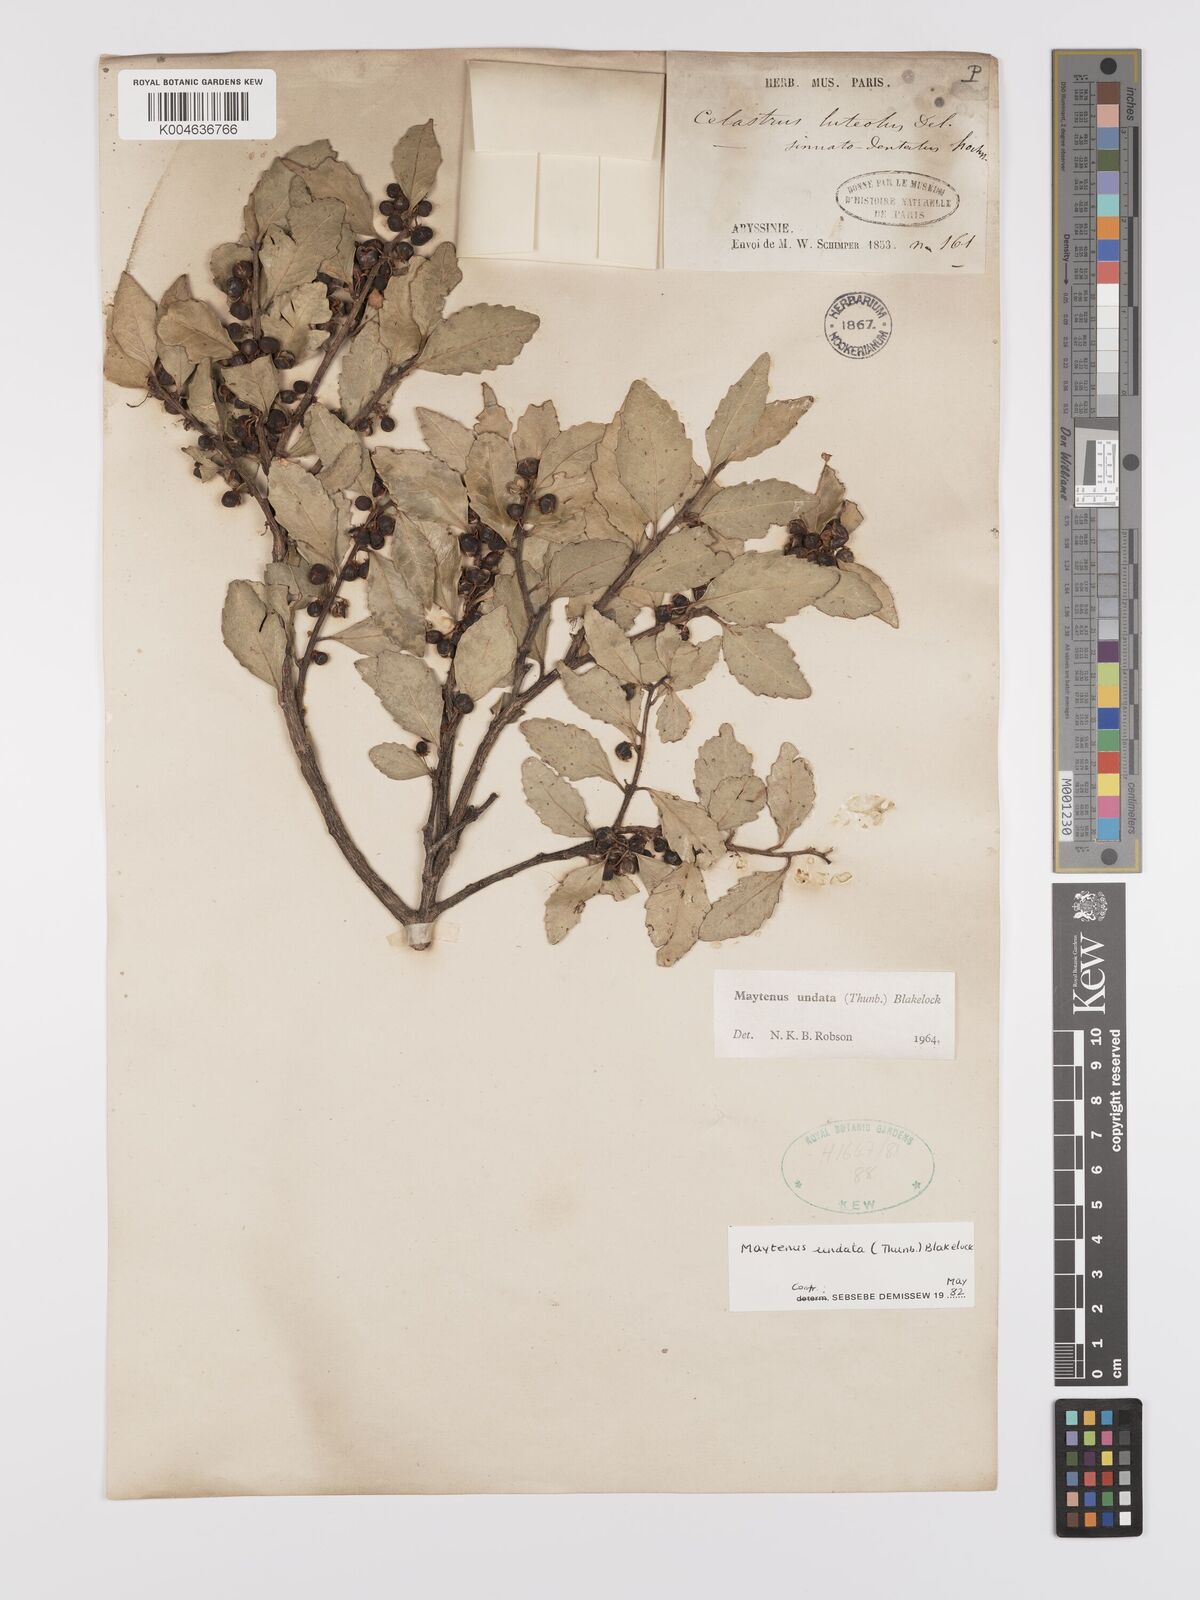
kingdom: Plantae
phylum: Tracheophyta
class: Magnoliopsida
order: Celastrales
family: Celastraceae
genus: Gymnosporia
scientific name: Gymnosporia undata
